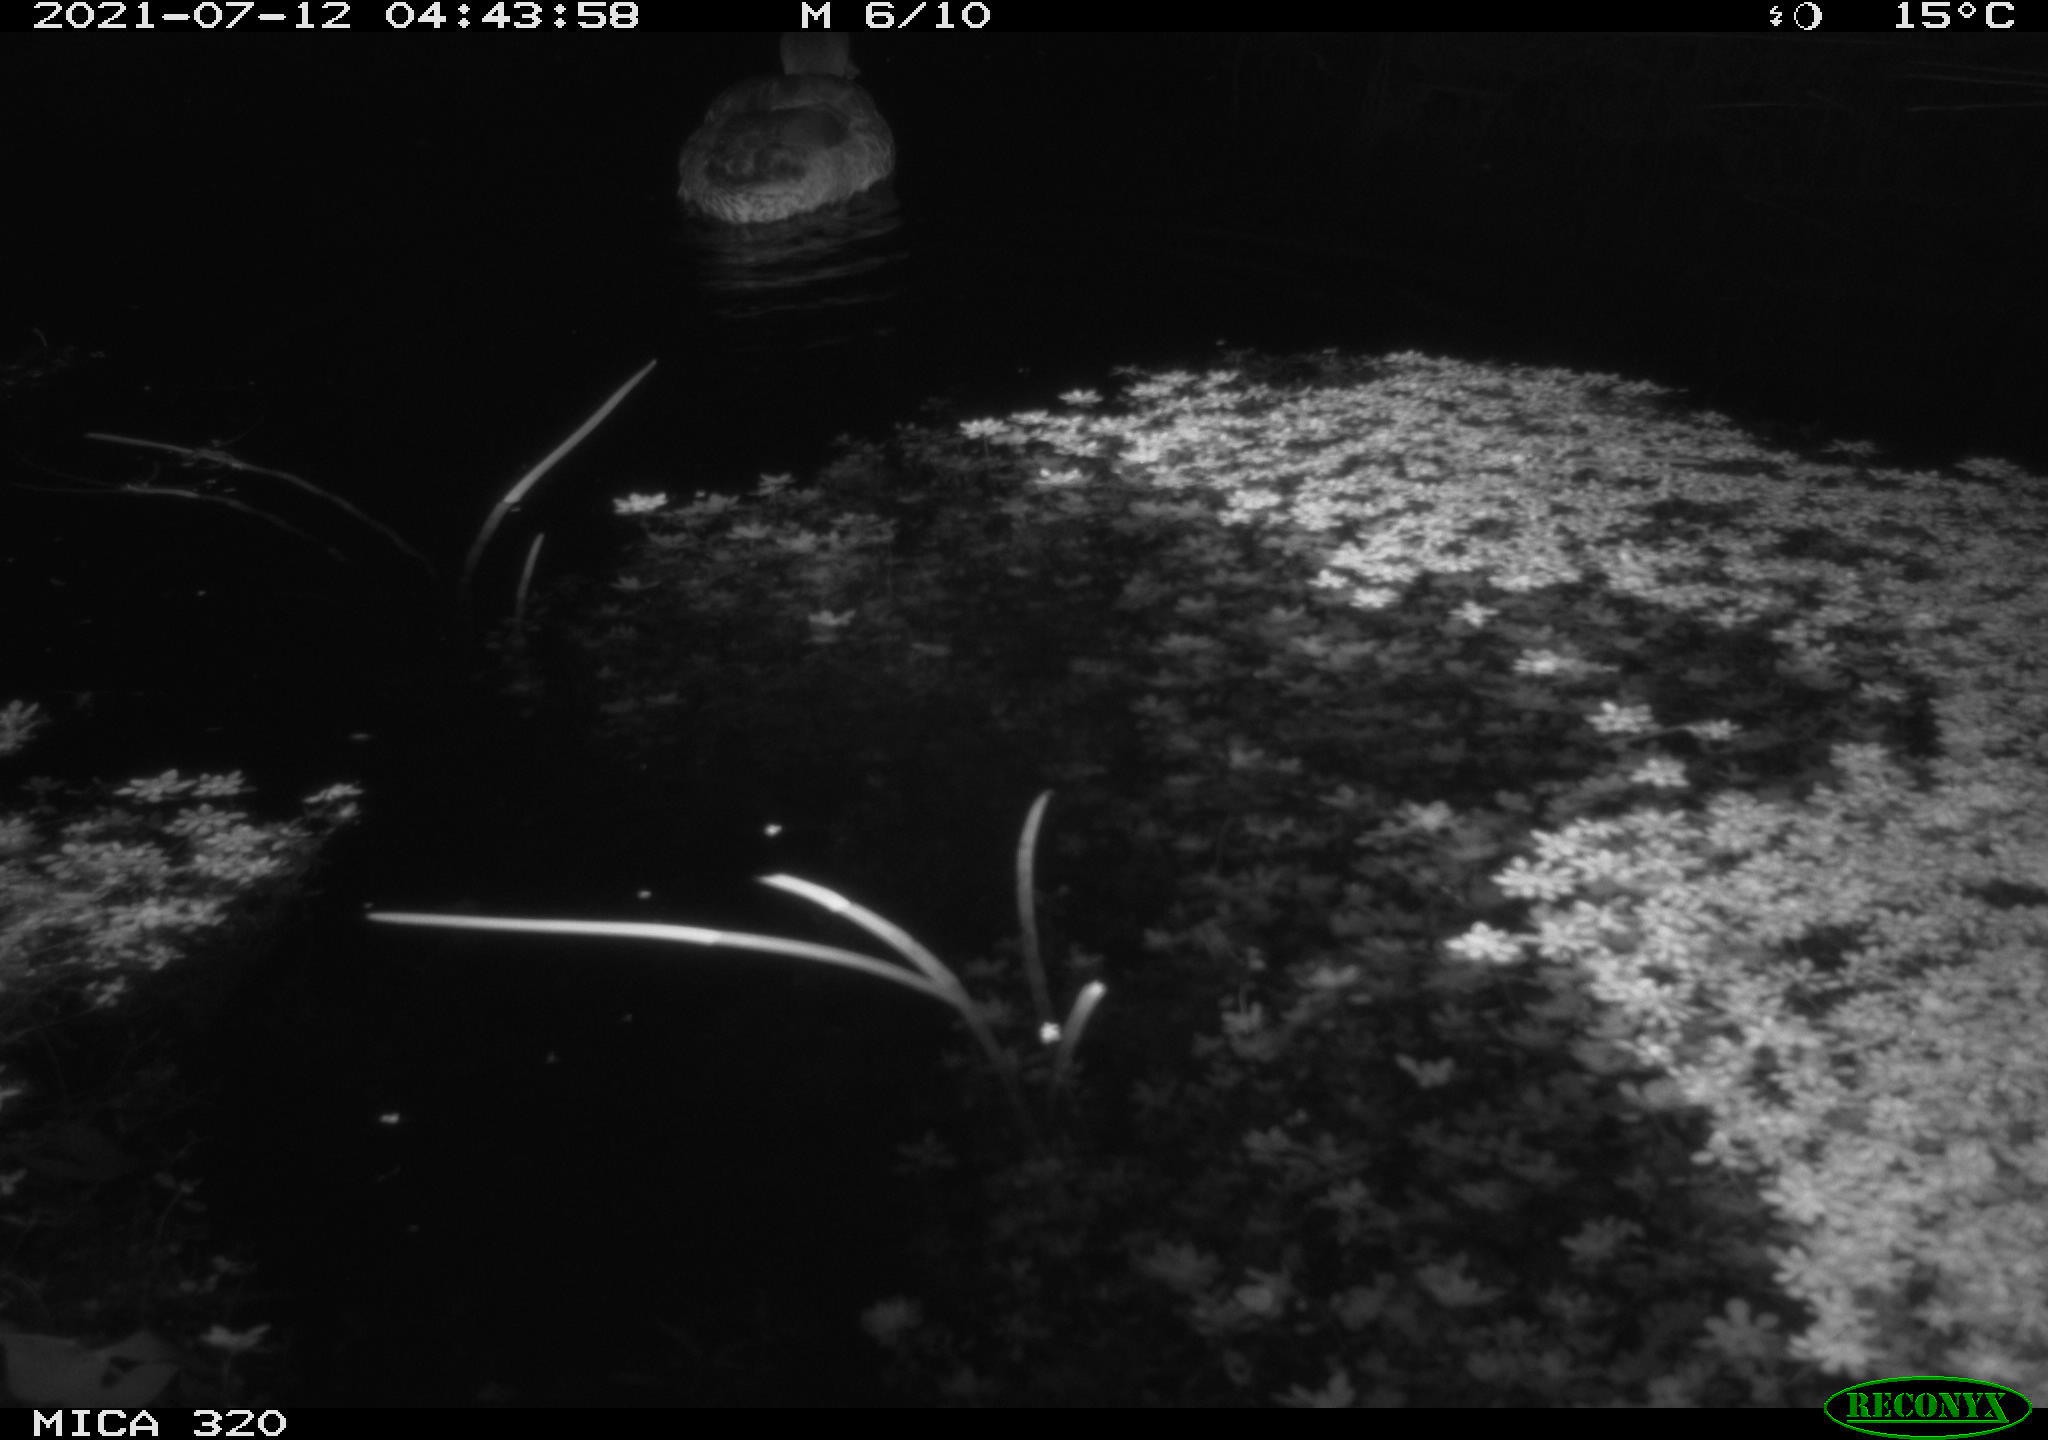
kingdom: Animalia
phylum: Chordata
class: Aves
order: Anseriformes
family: Anatidae
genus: Anas
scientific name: Anas platyrhynchos
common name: Mallard
